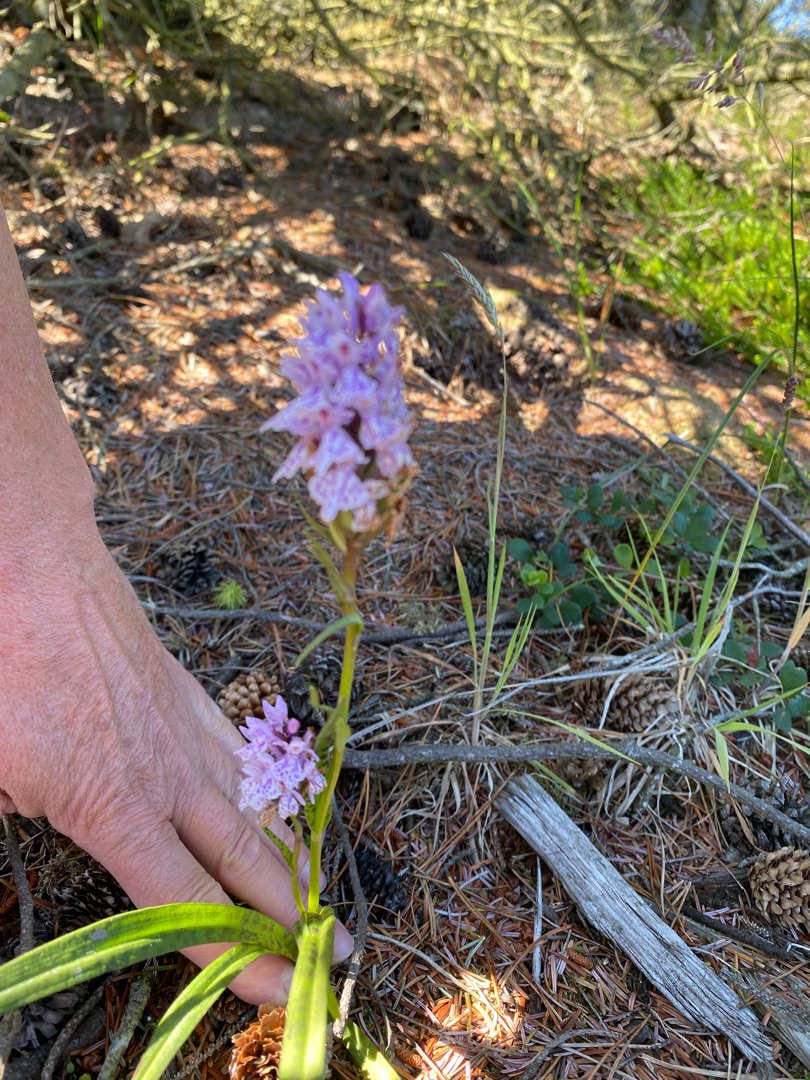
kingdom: Plantae
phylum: Tracheophyta
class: Liliopsida
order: Asparagales
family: Orchidaceae
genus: Dactylorhiza
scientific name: Dactylorhiza maculata
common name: Plettet gøgeurt
